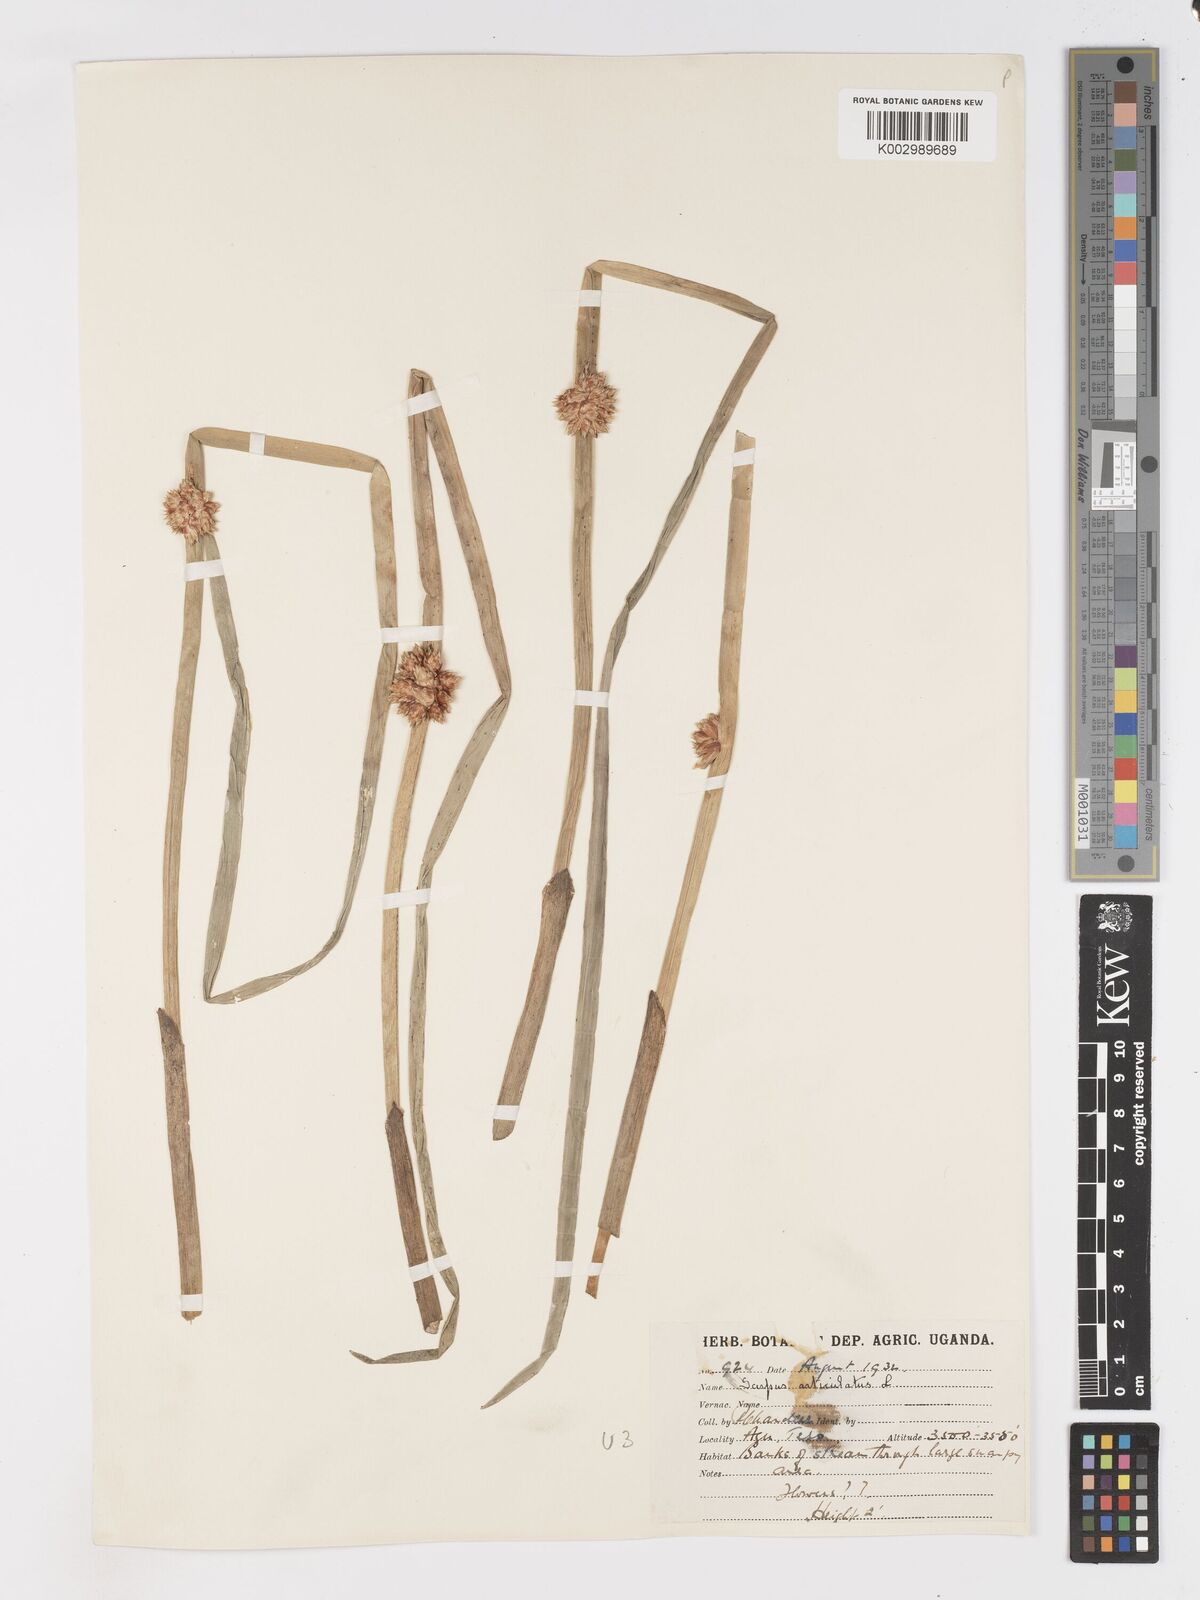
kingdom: Plantae
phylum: Tracheophyta
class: Liliopsida
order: Poales
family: Cyperaceae
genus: Schoenoplectiella
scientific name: Schoenoplectiella articulata
